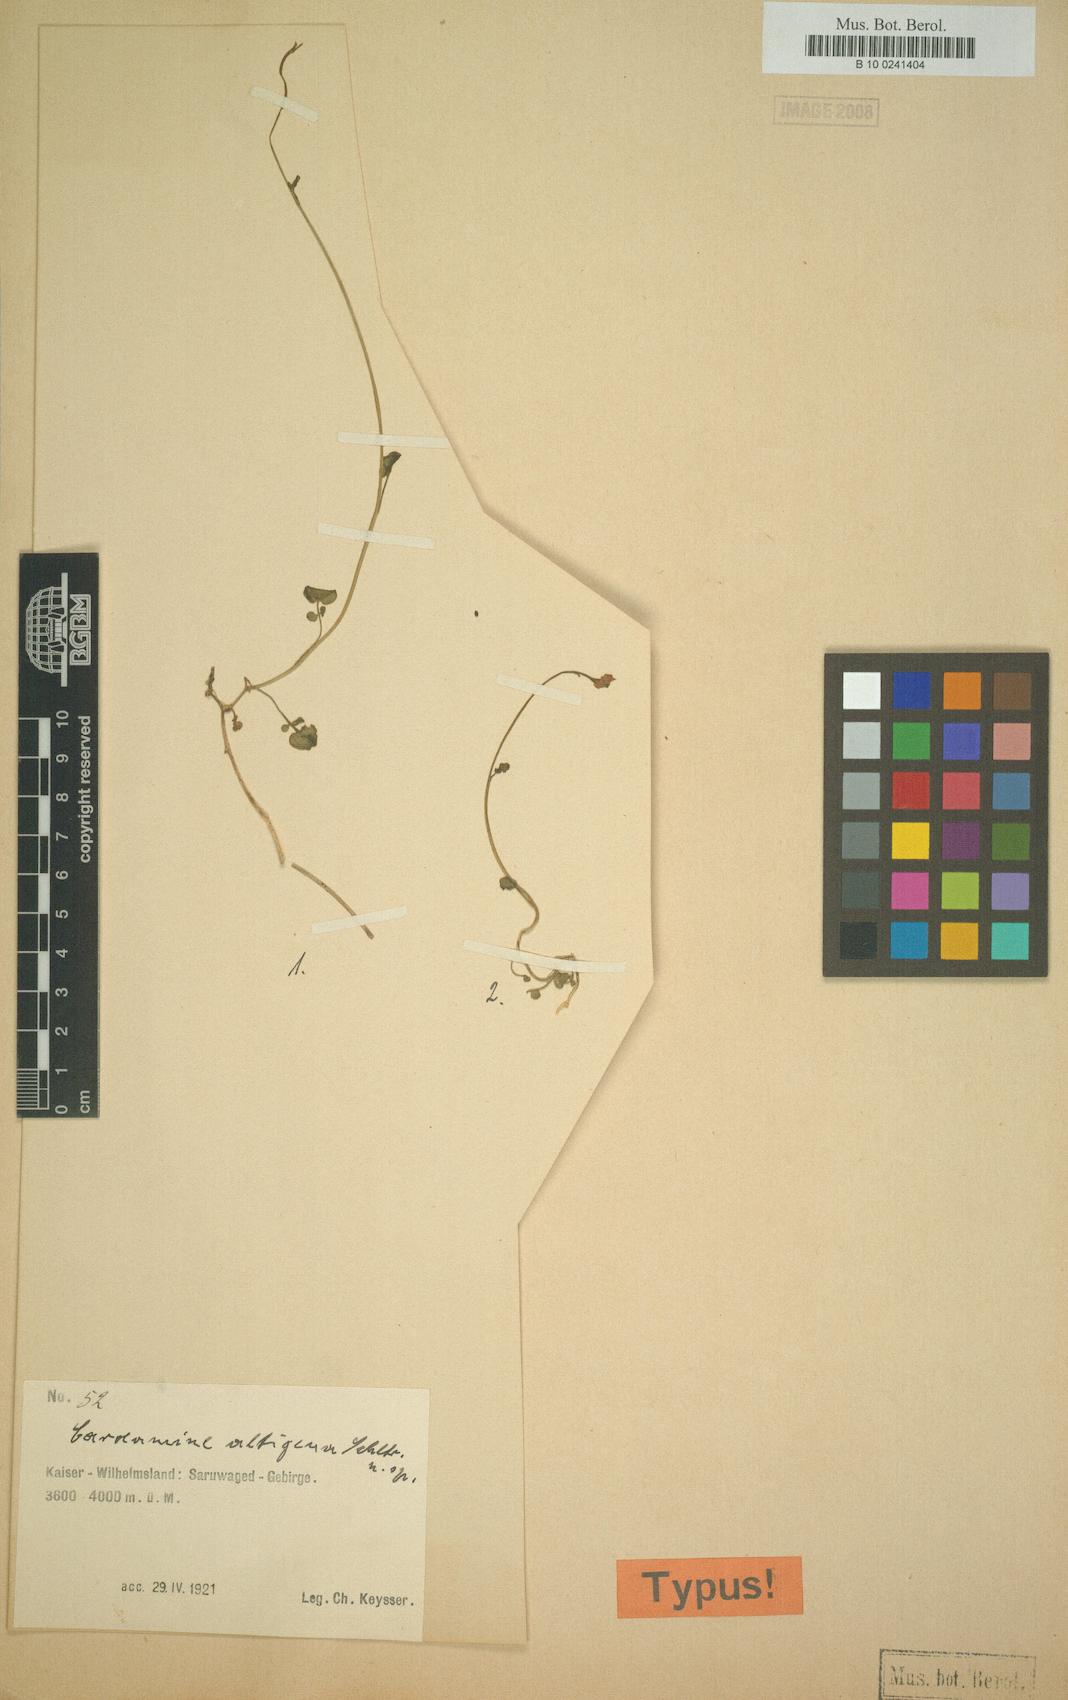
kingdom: Plantae
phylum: Tracheophyta
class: Magnoliopsida
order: Brassicales
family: Brassicaceae
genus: Cardamine
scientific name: Cardamine altigena
